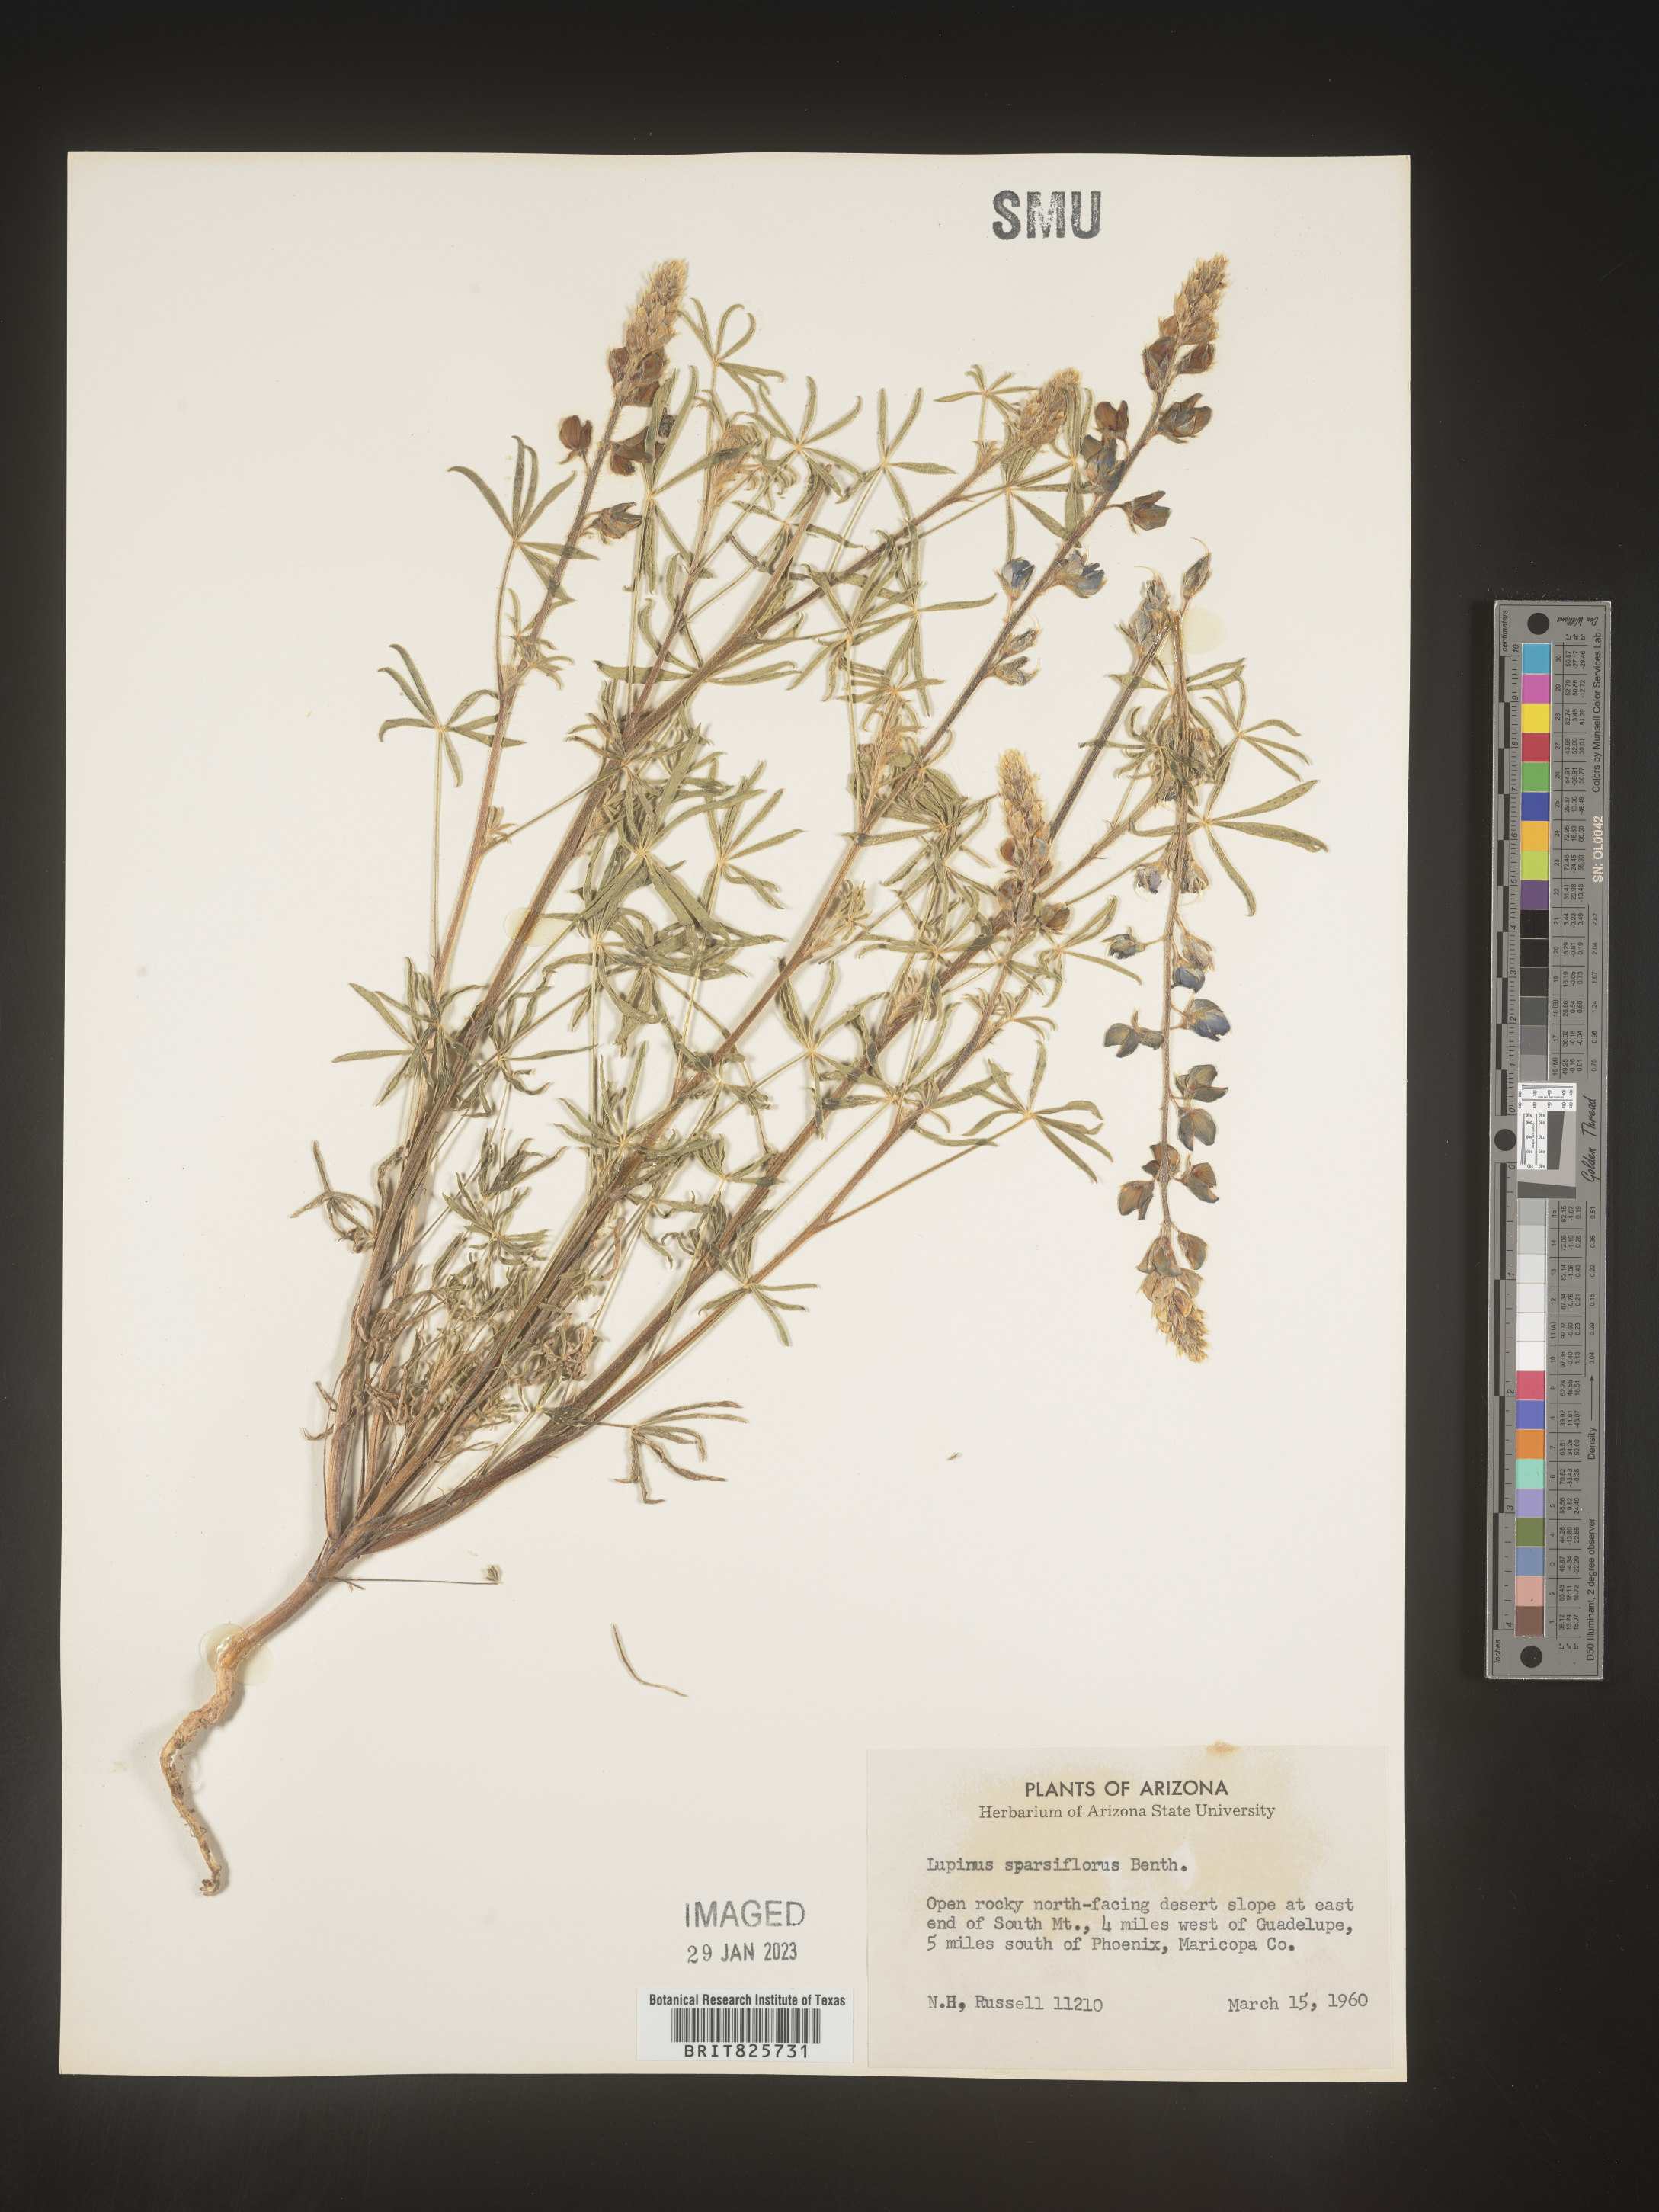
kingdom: Plantae
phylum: Tracheophyta
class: Magnoliopsida
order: Fabales
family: Fabaceae
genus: Lupinus
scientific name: Lupinus
